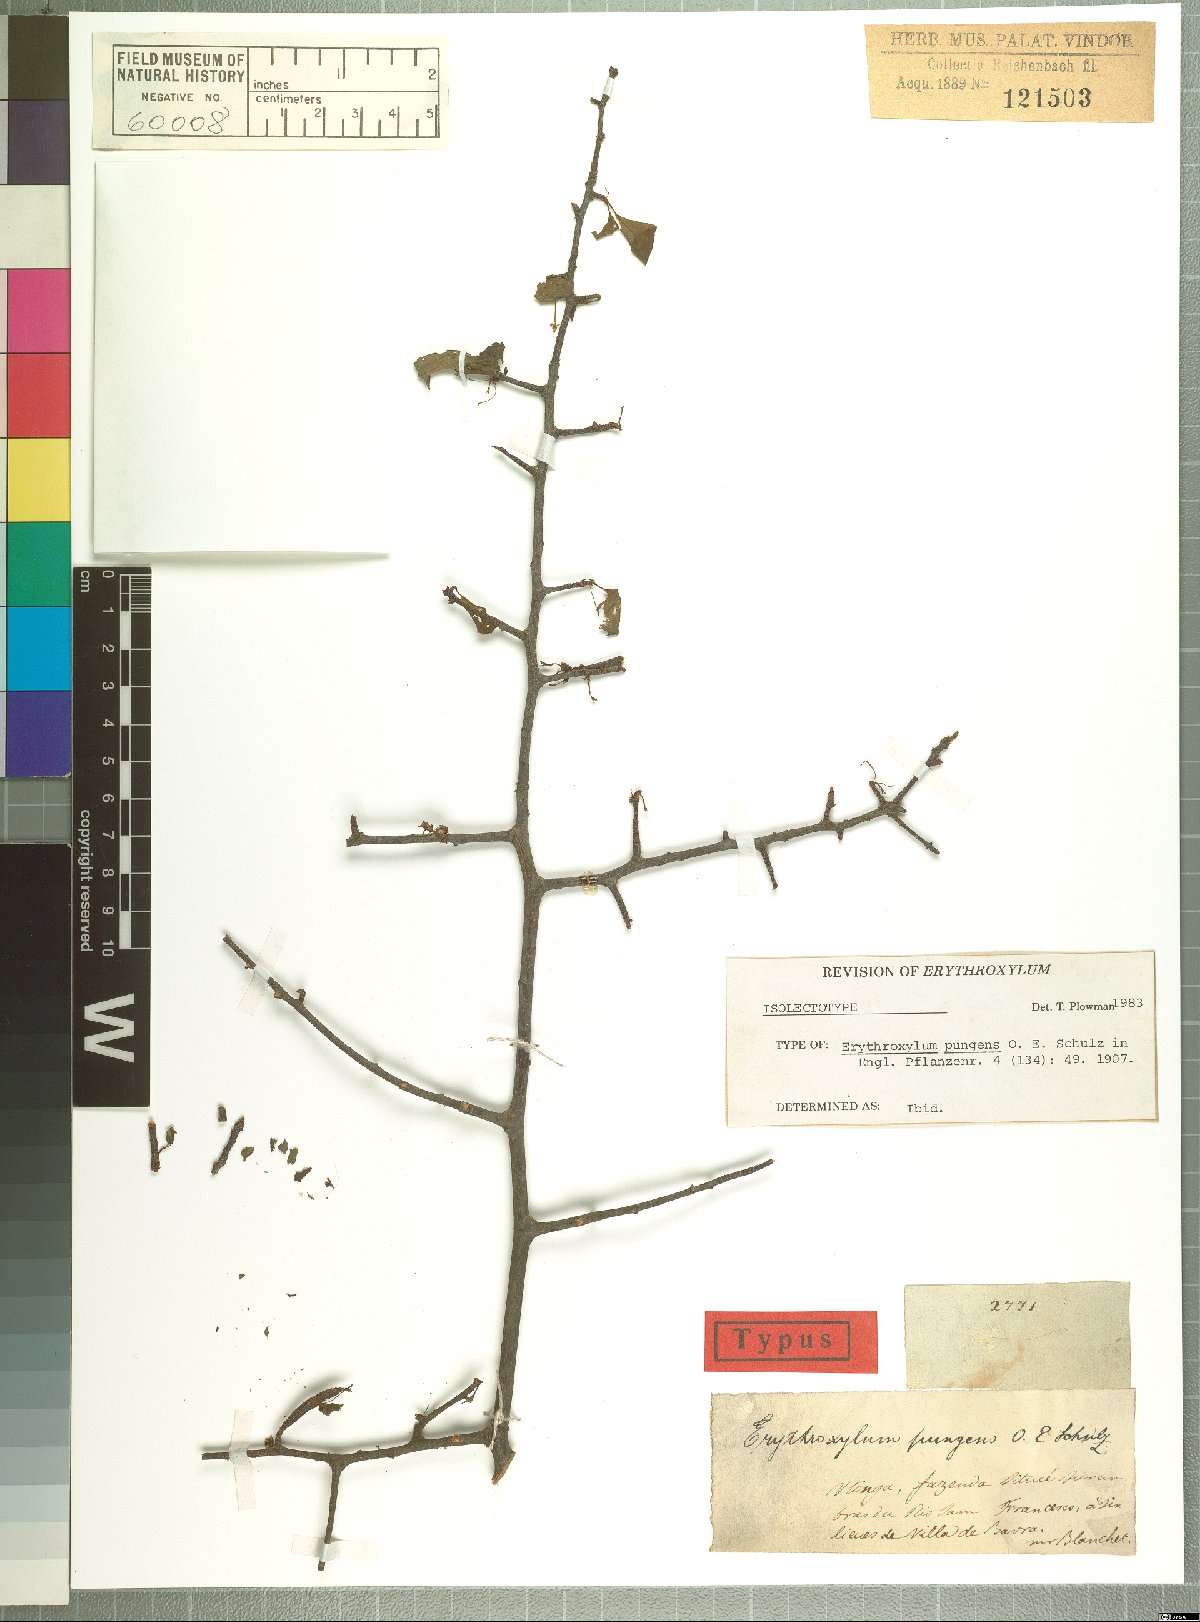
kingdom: Plantae
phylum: Tracheophyta
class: Magnoliopsida
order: Malpighiales
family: Erythroxylaceae
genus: Erythroxylum
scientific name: Erythroxylum pungens
